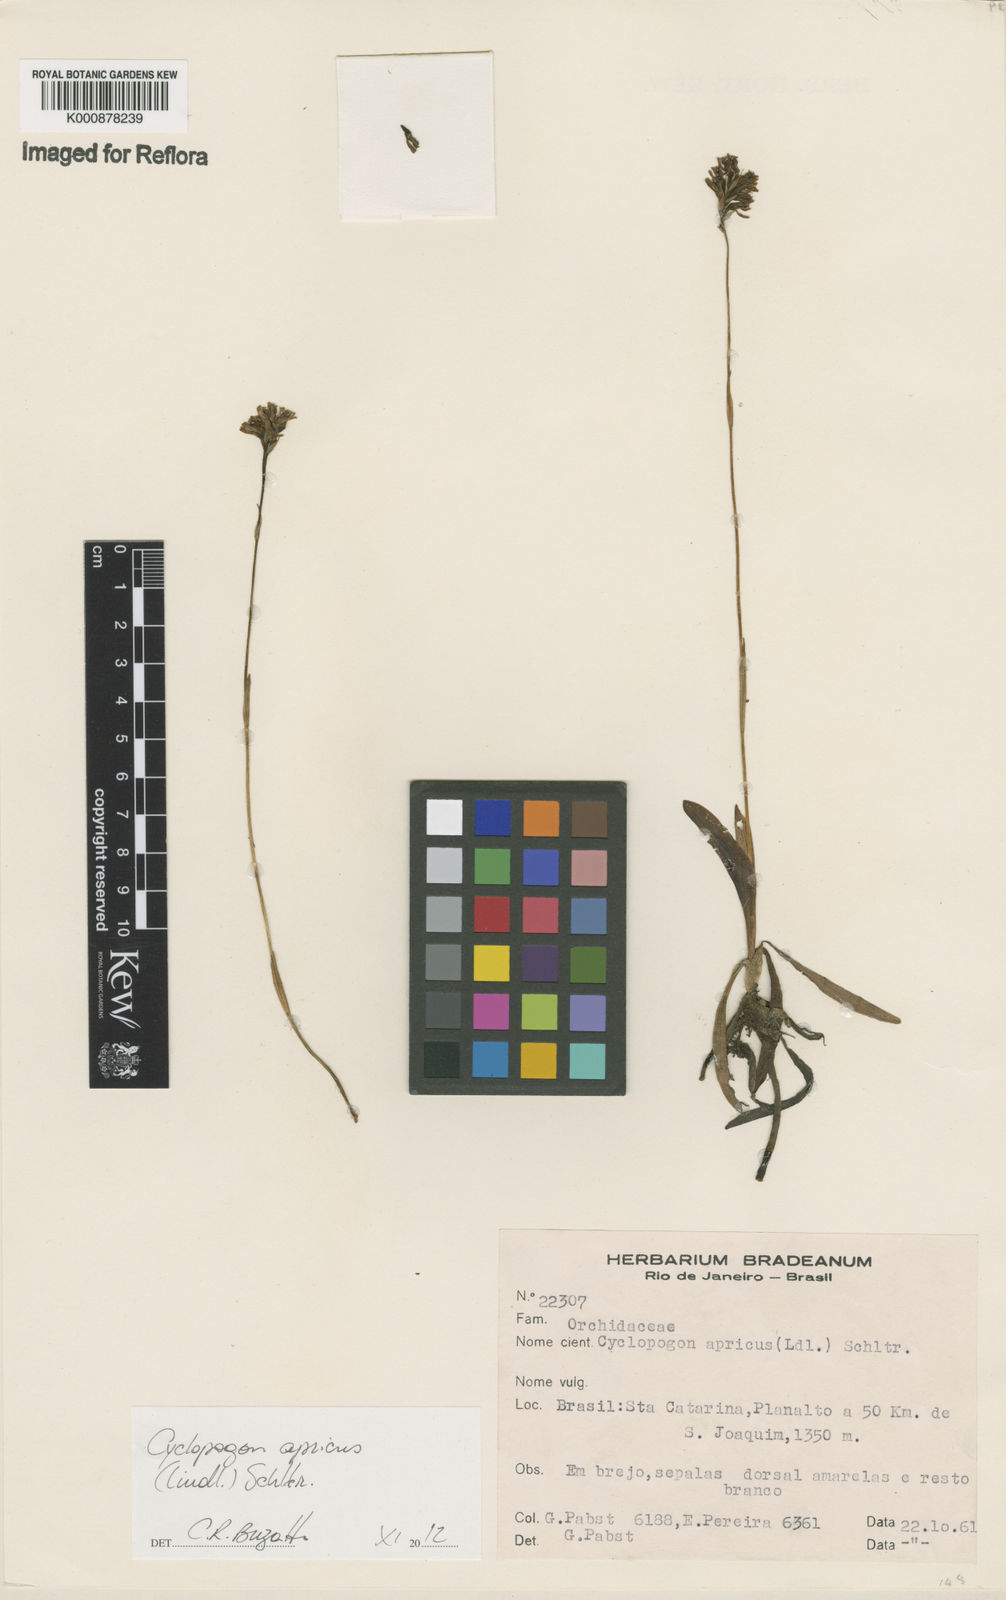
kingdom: Plantae
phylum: Tracheophyta
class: Liliopsida
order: Asparagales
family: Orchidaceae
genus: Cyclopogon
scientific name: Cyclopogon apricus
